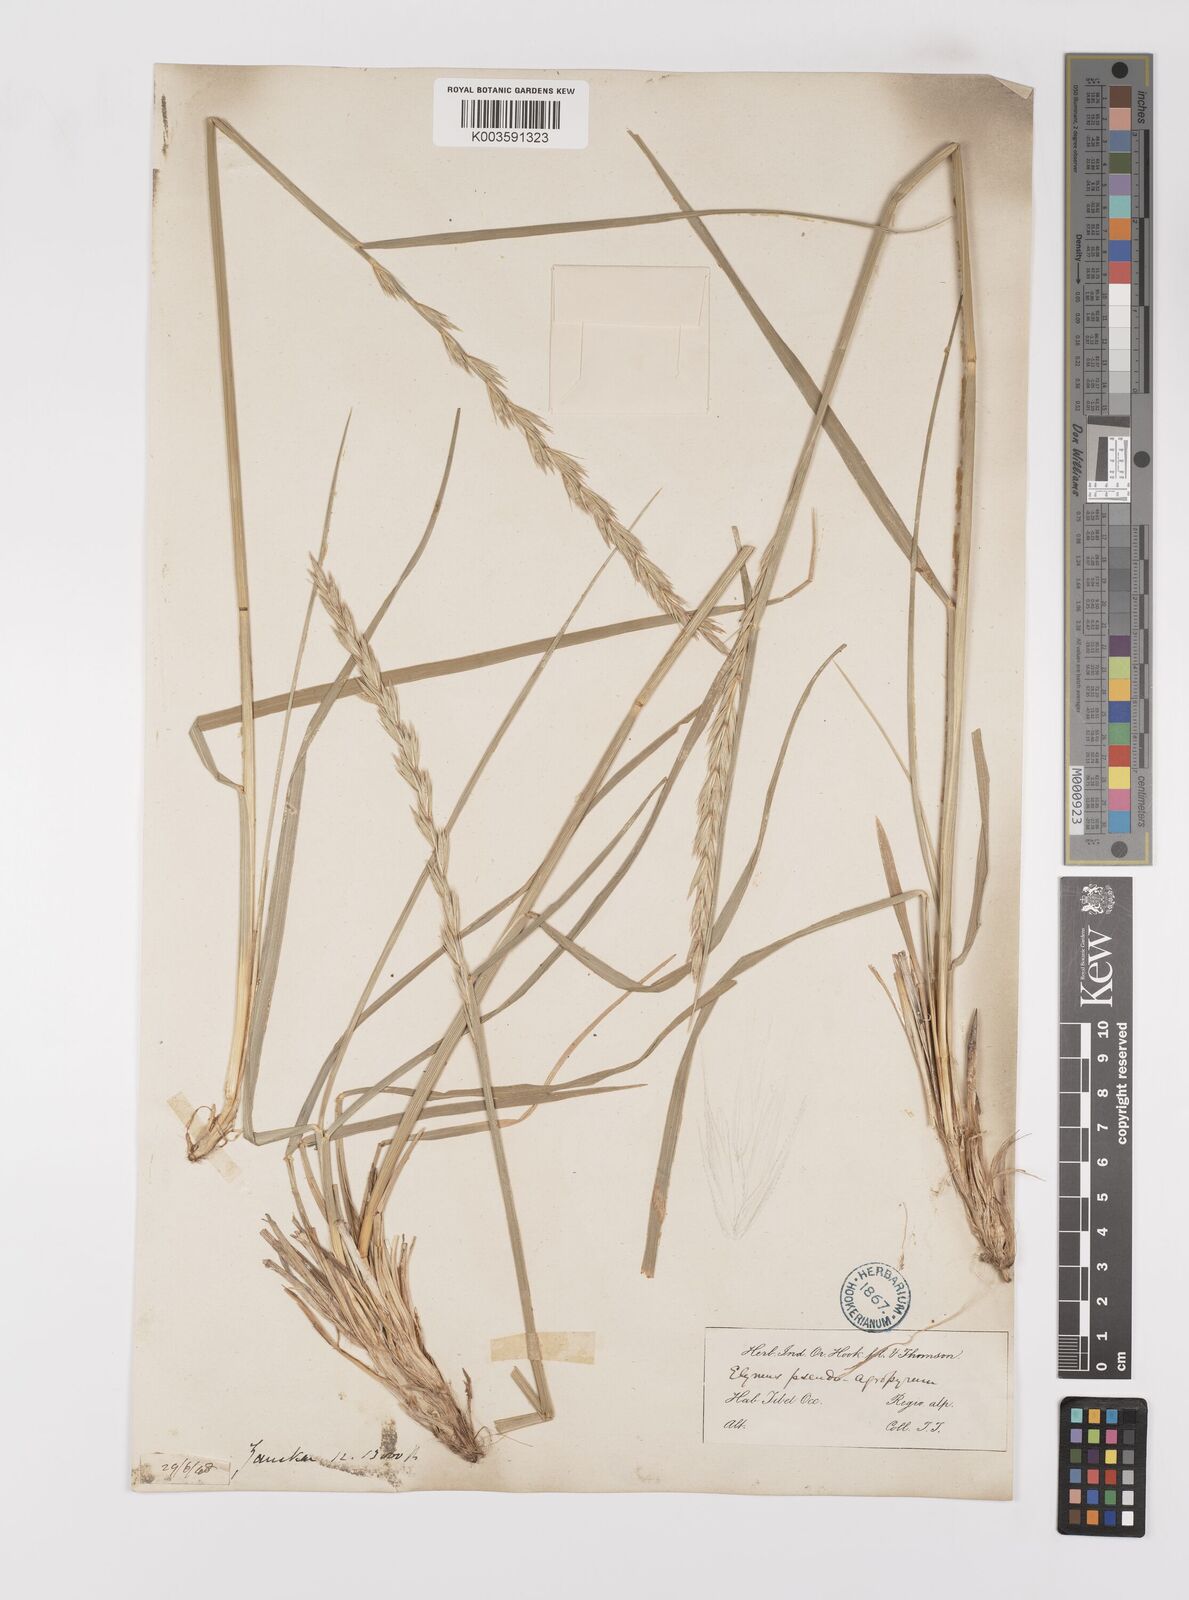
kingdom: Plantae
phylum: Tracheophyta
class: Liliopsida
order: Poales
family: Poaceae
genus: Leymus
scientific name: Leymus secalinus
